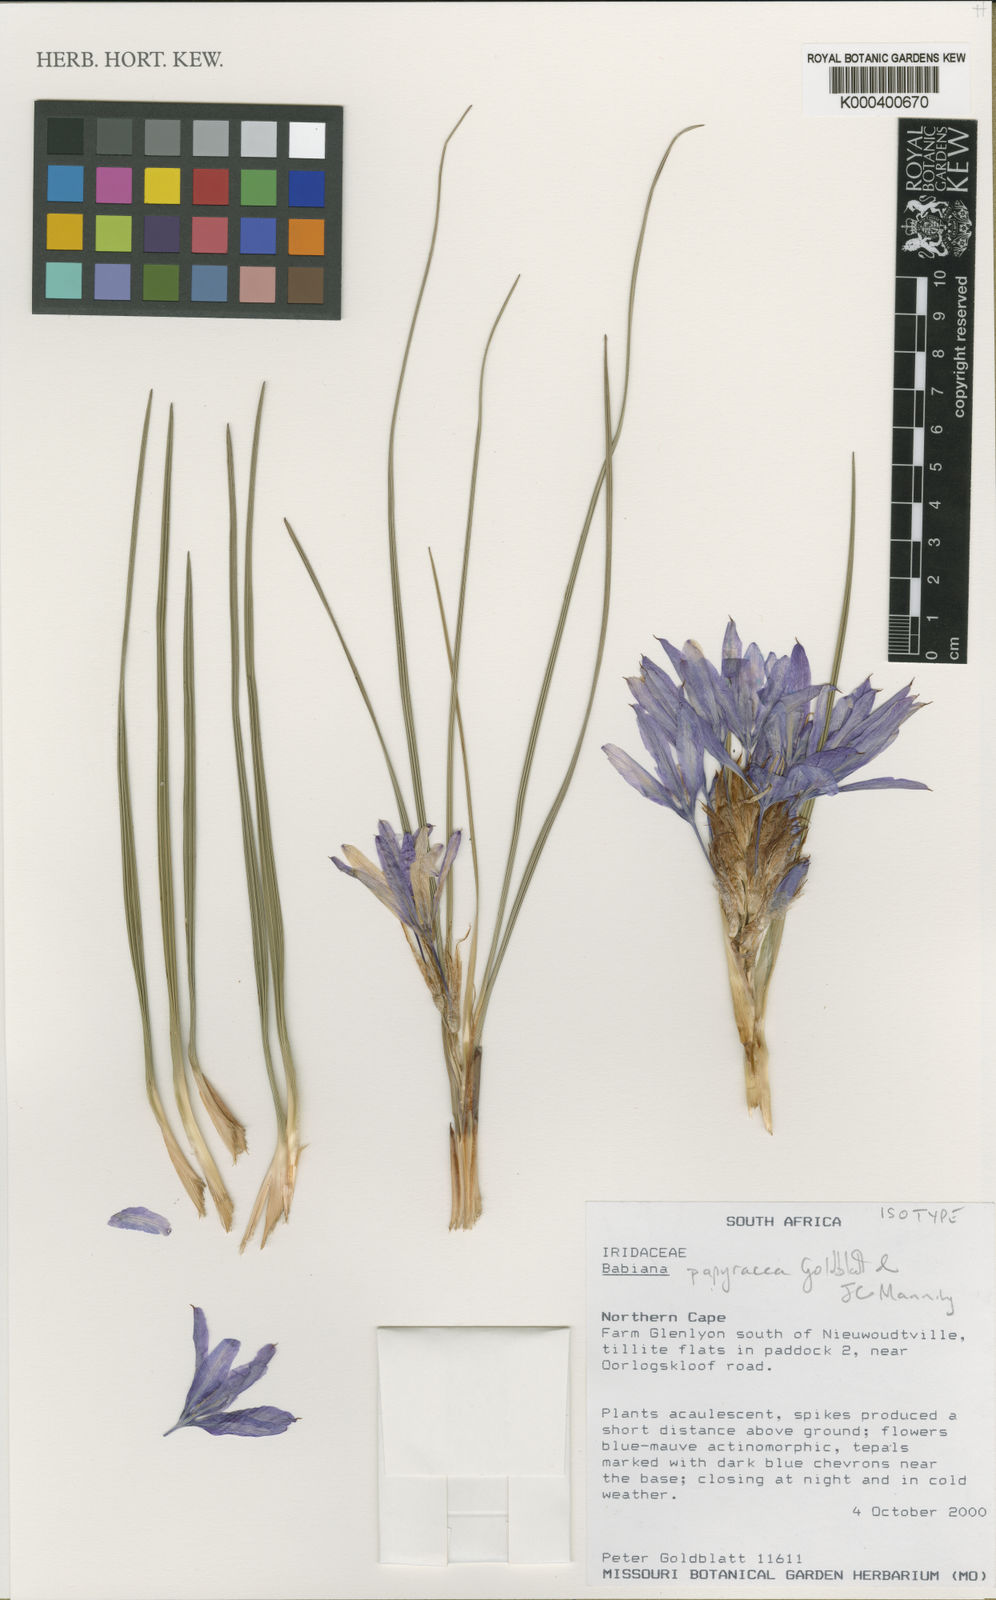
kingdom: Plantae
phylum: Tracheophyta
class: Liliopsida
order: Asparagales
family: Iridaceae
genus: Babiana
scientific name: Babiana
